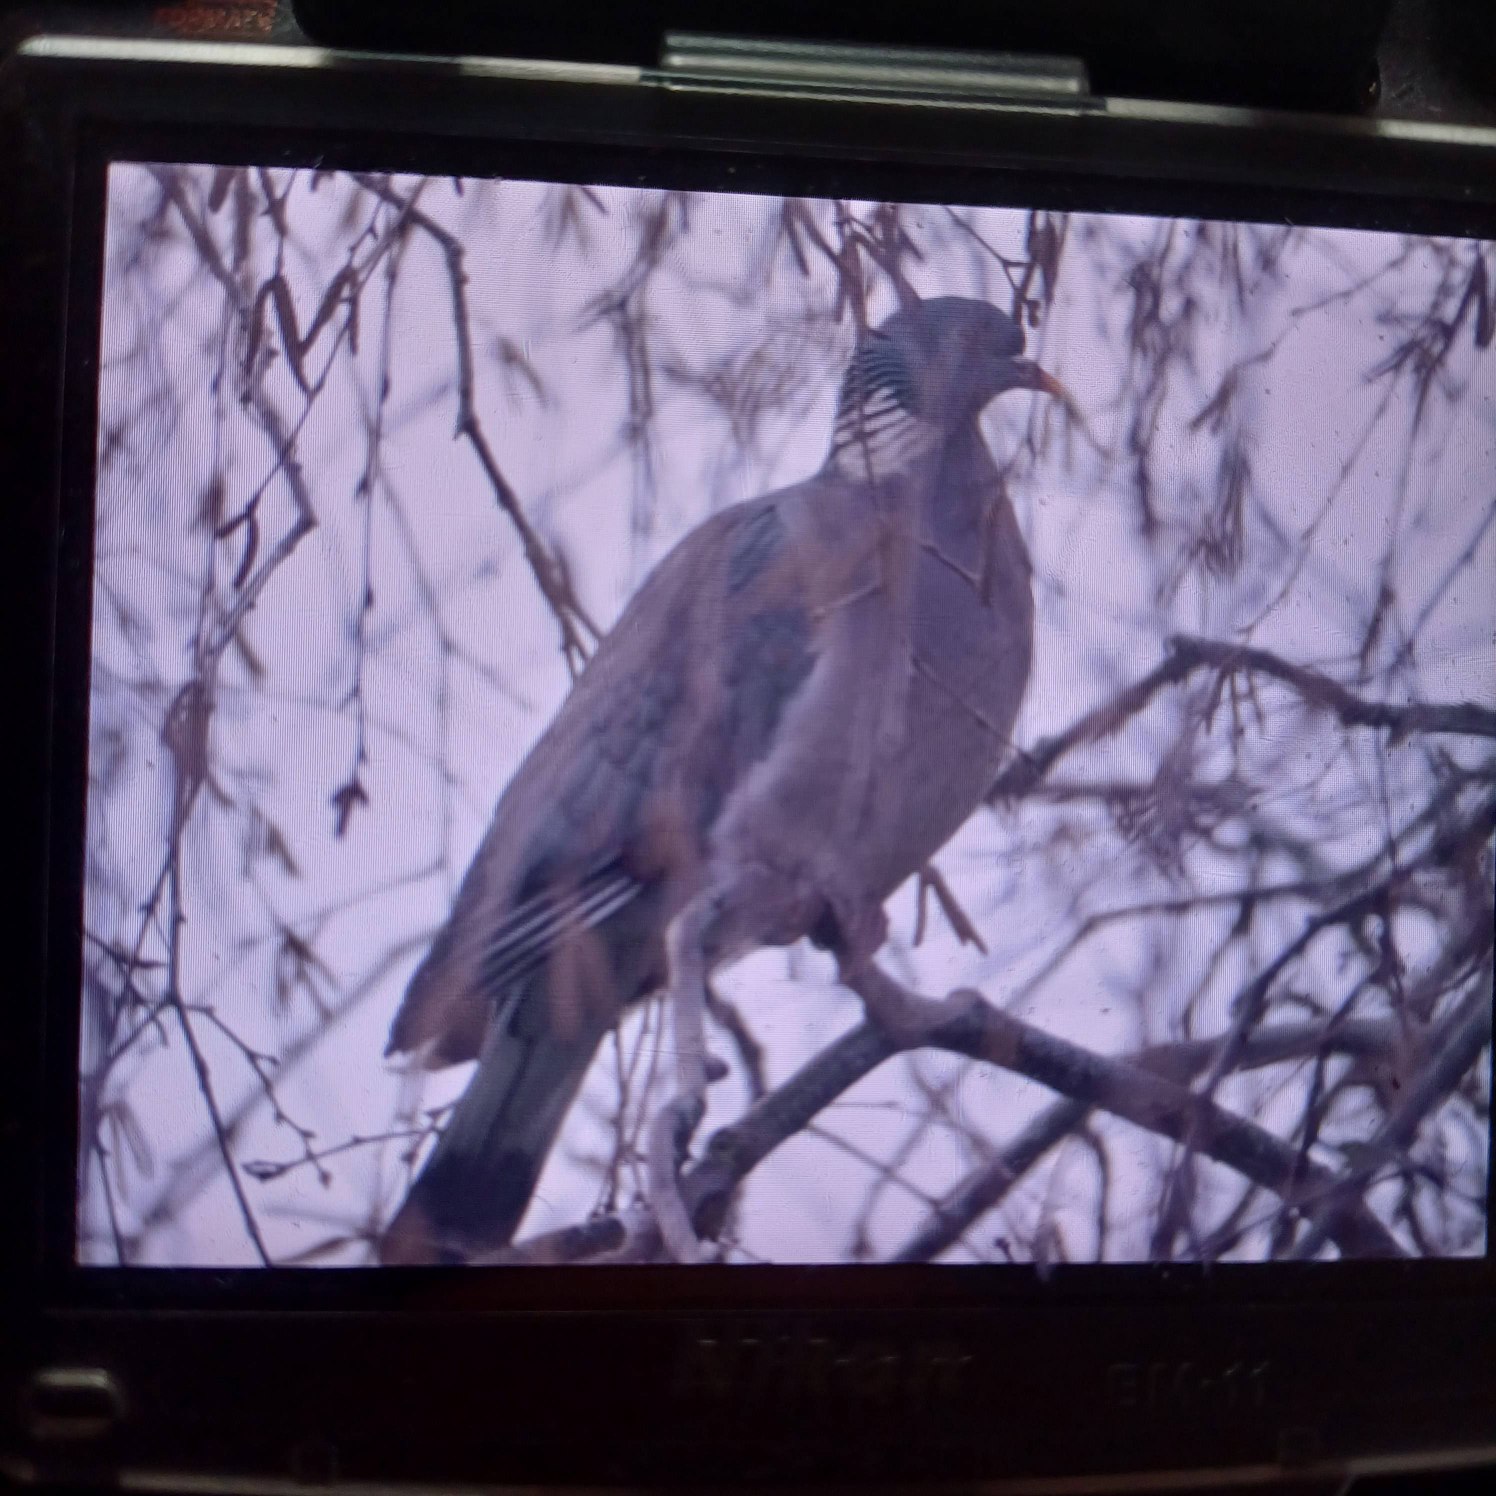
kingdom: Animalia
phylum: Chordata
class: Aves
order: Columbiformes
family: Columbidae
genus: Columba
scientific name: Columba palumbus
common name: Ringdue
